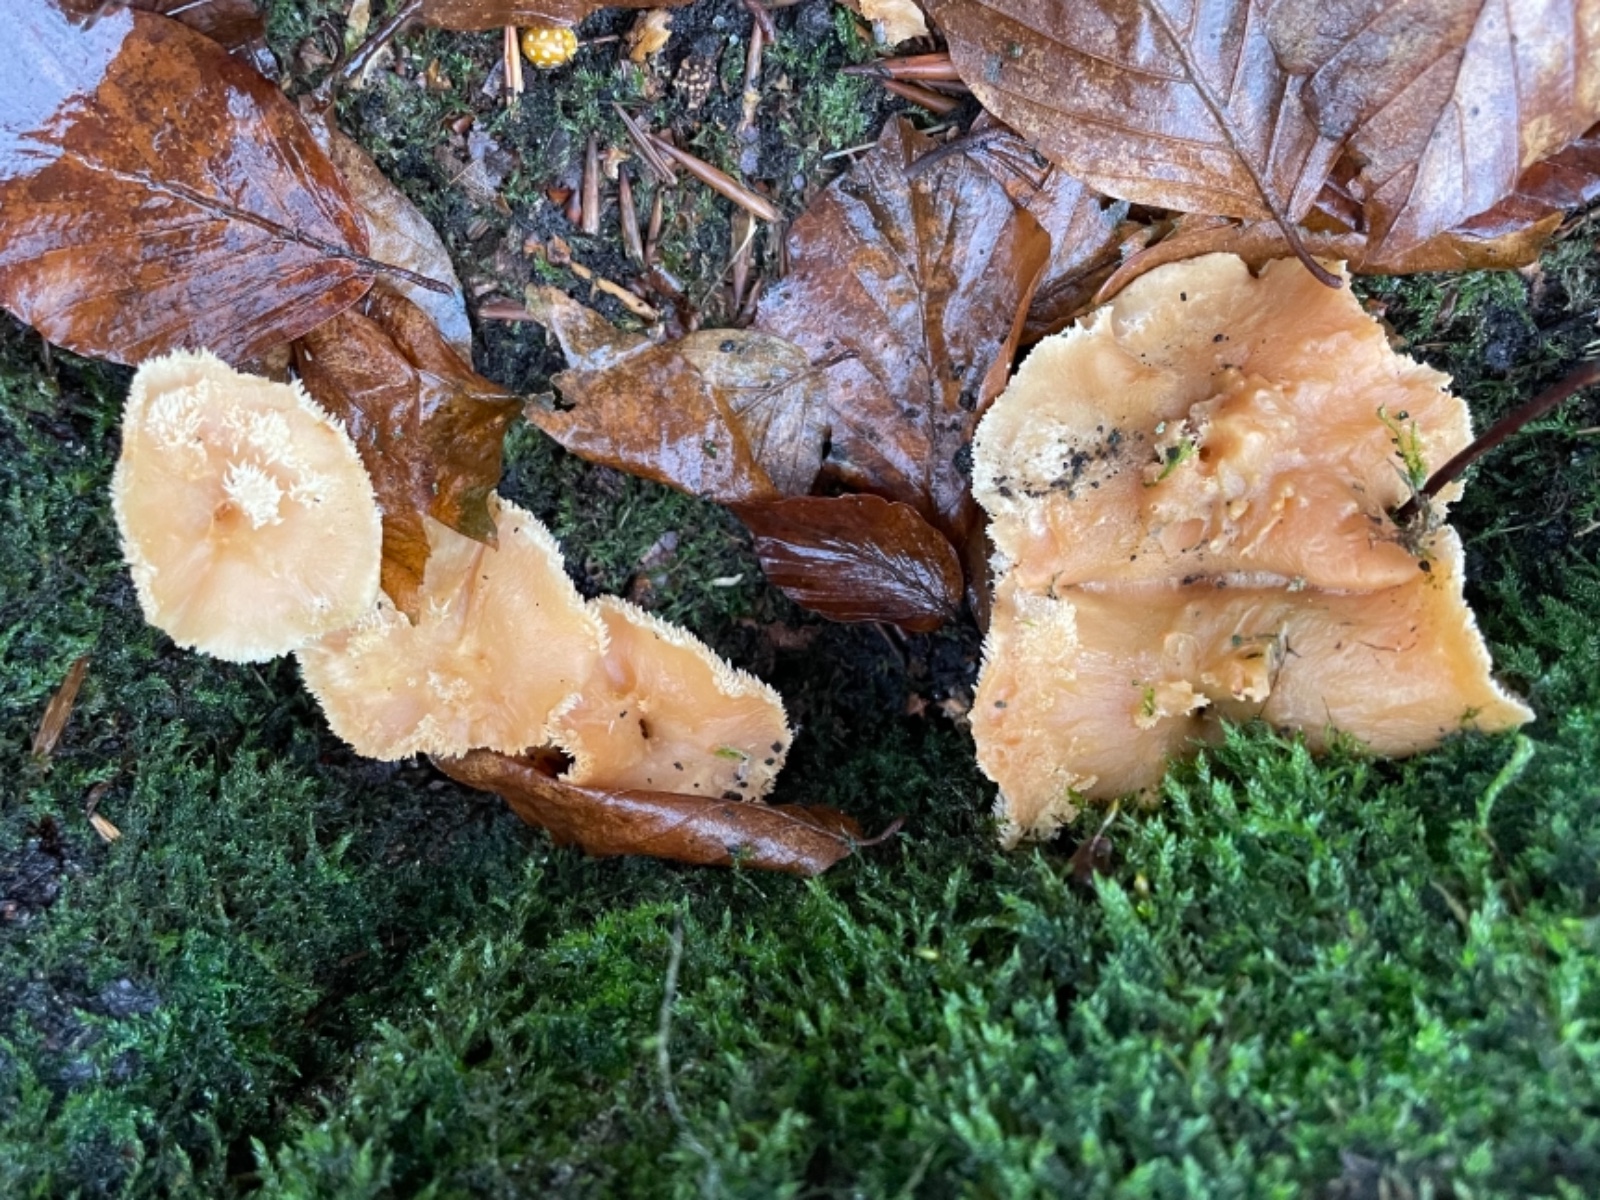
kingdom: Fungi
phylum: Basidiomycota
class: Agaricomycetes
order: Cantharellales
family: Hydnaceae
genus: Hydnum
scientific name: Hydnum
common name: pigsvamp
